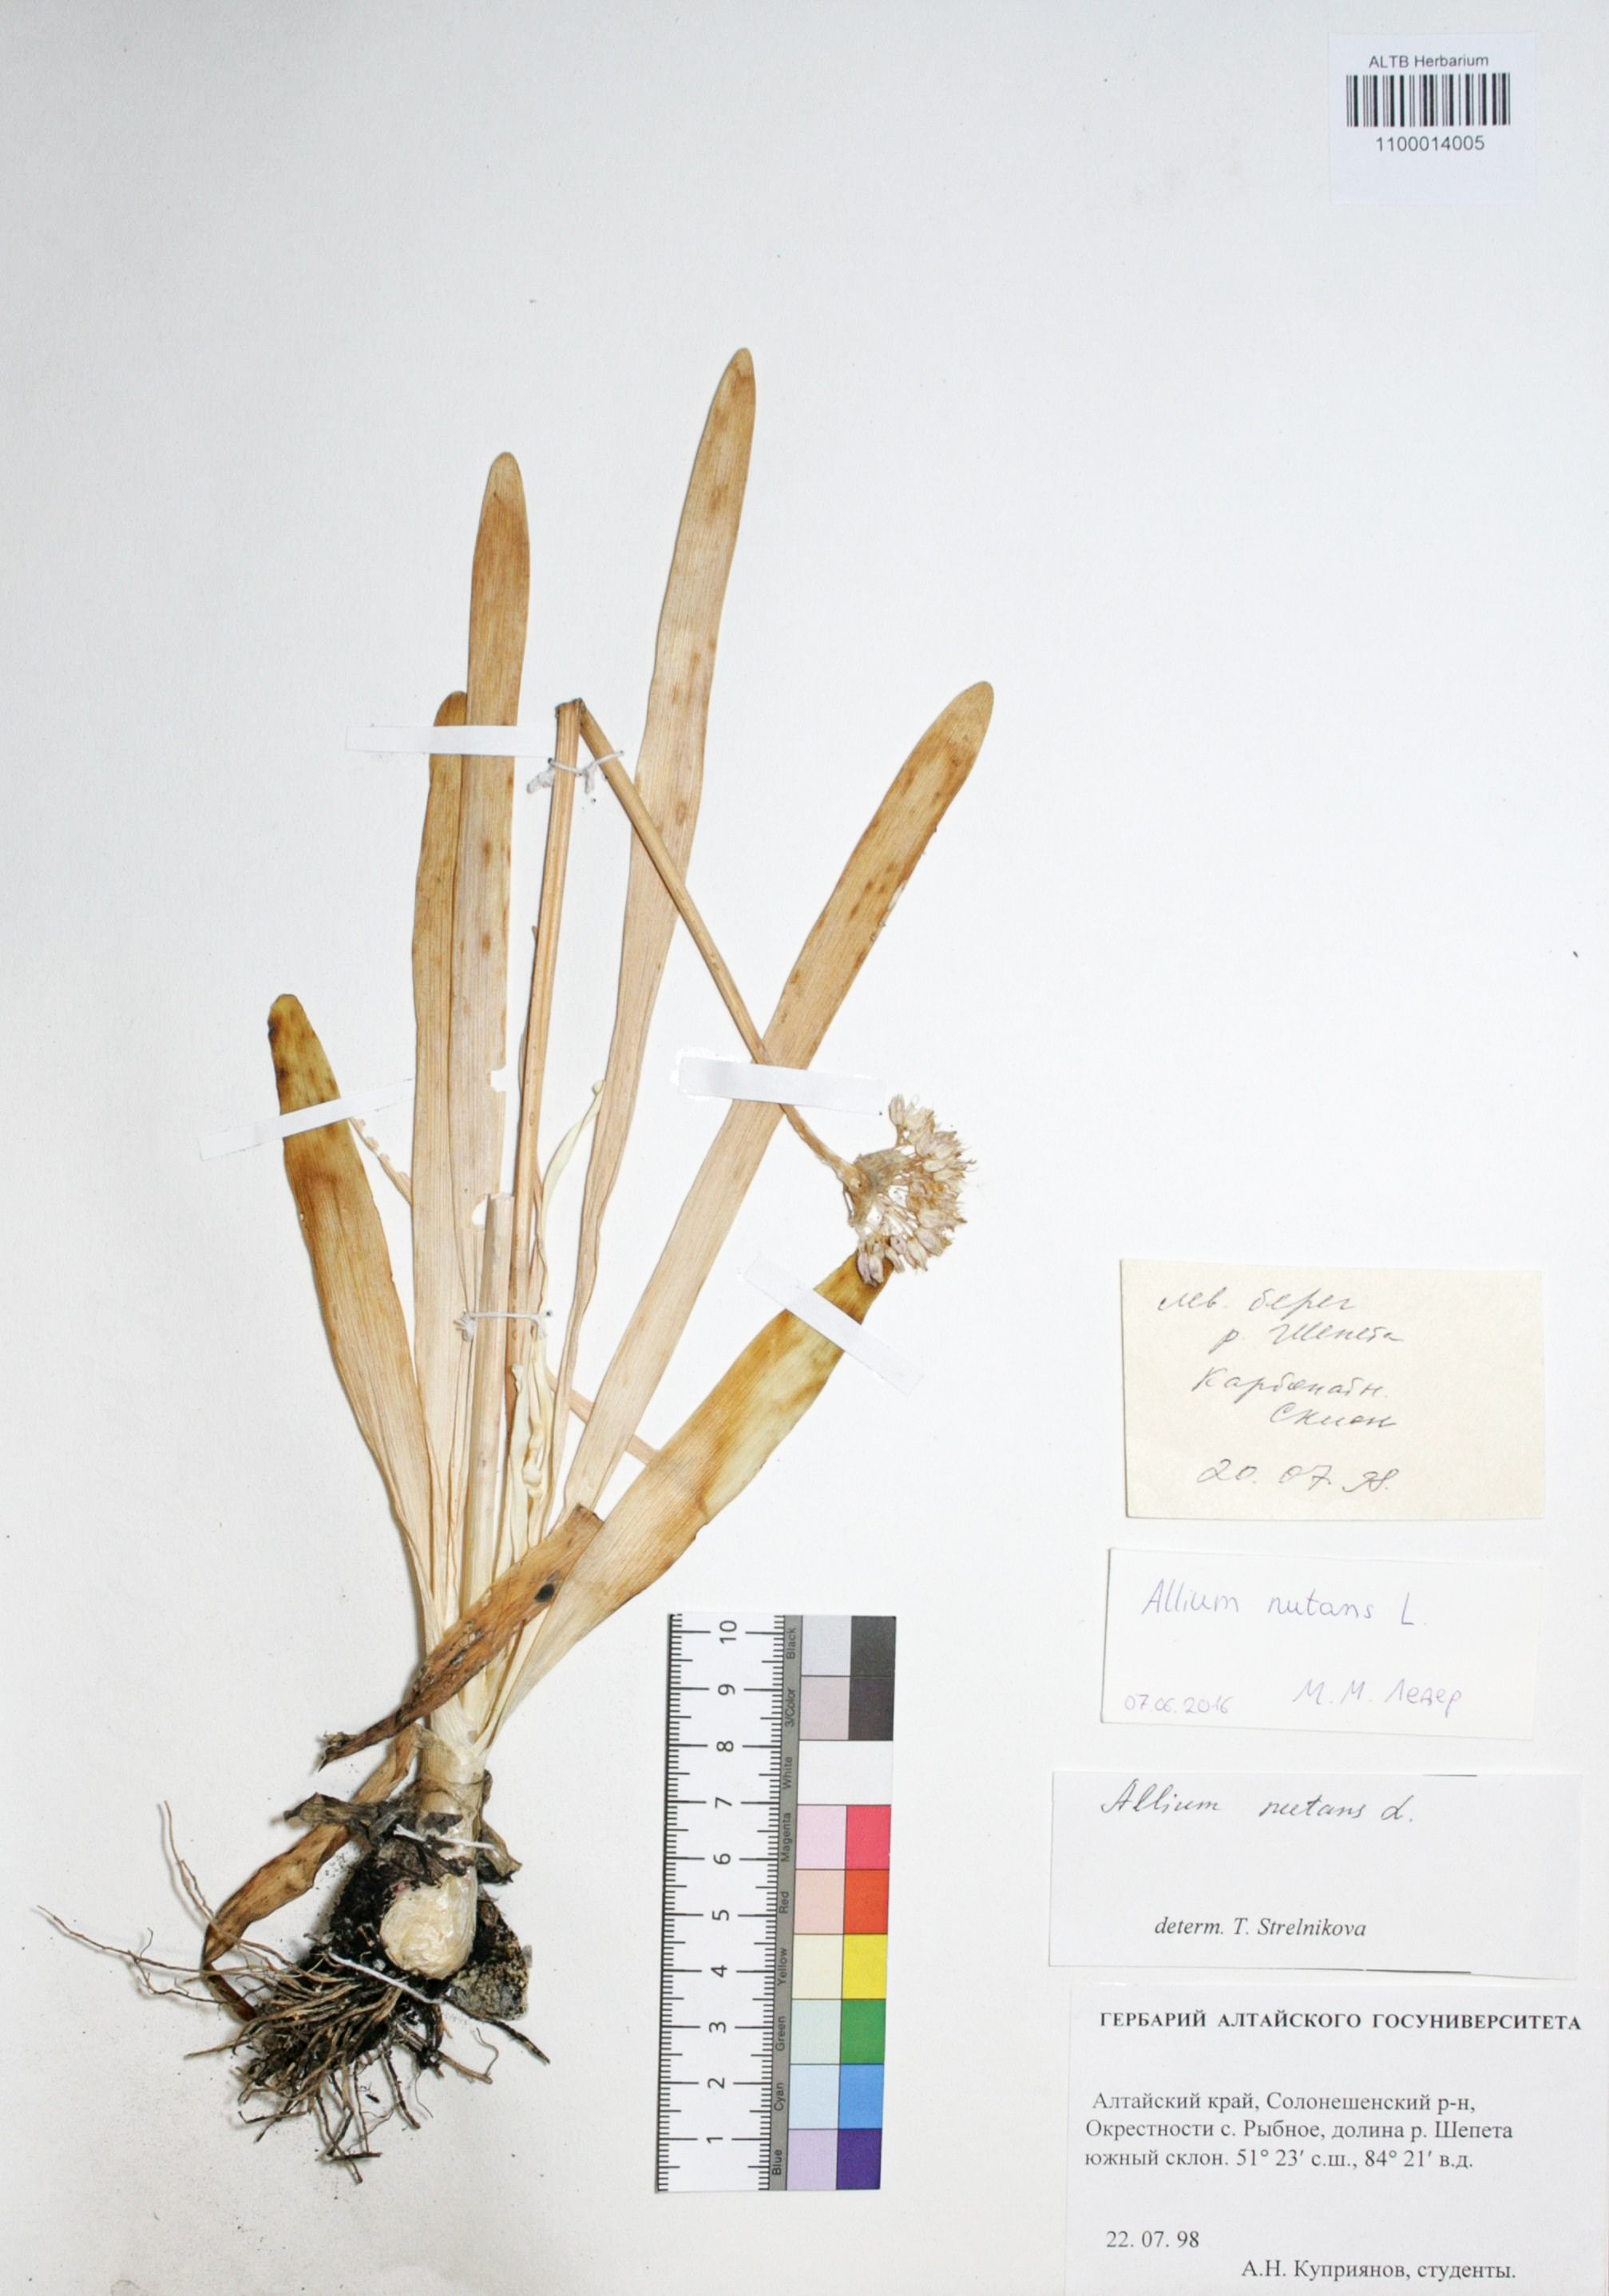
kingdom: Plantae
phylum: Tracheophyta
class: Liliopsida
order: Asparagales
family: Amaryllidaceae
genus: Allium
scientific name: Allium nutans
